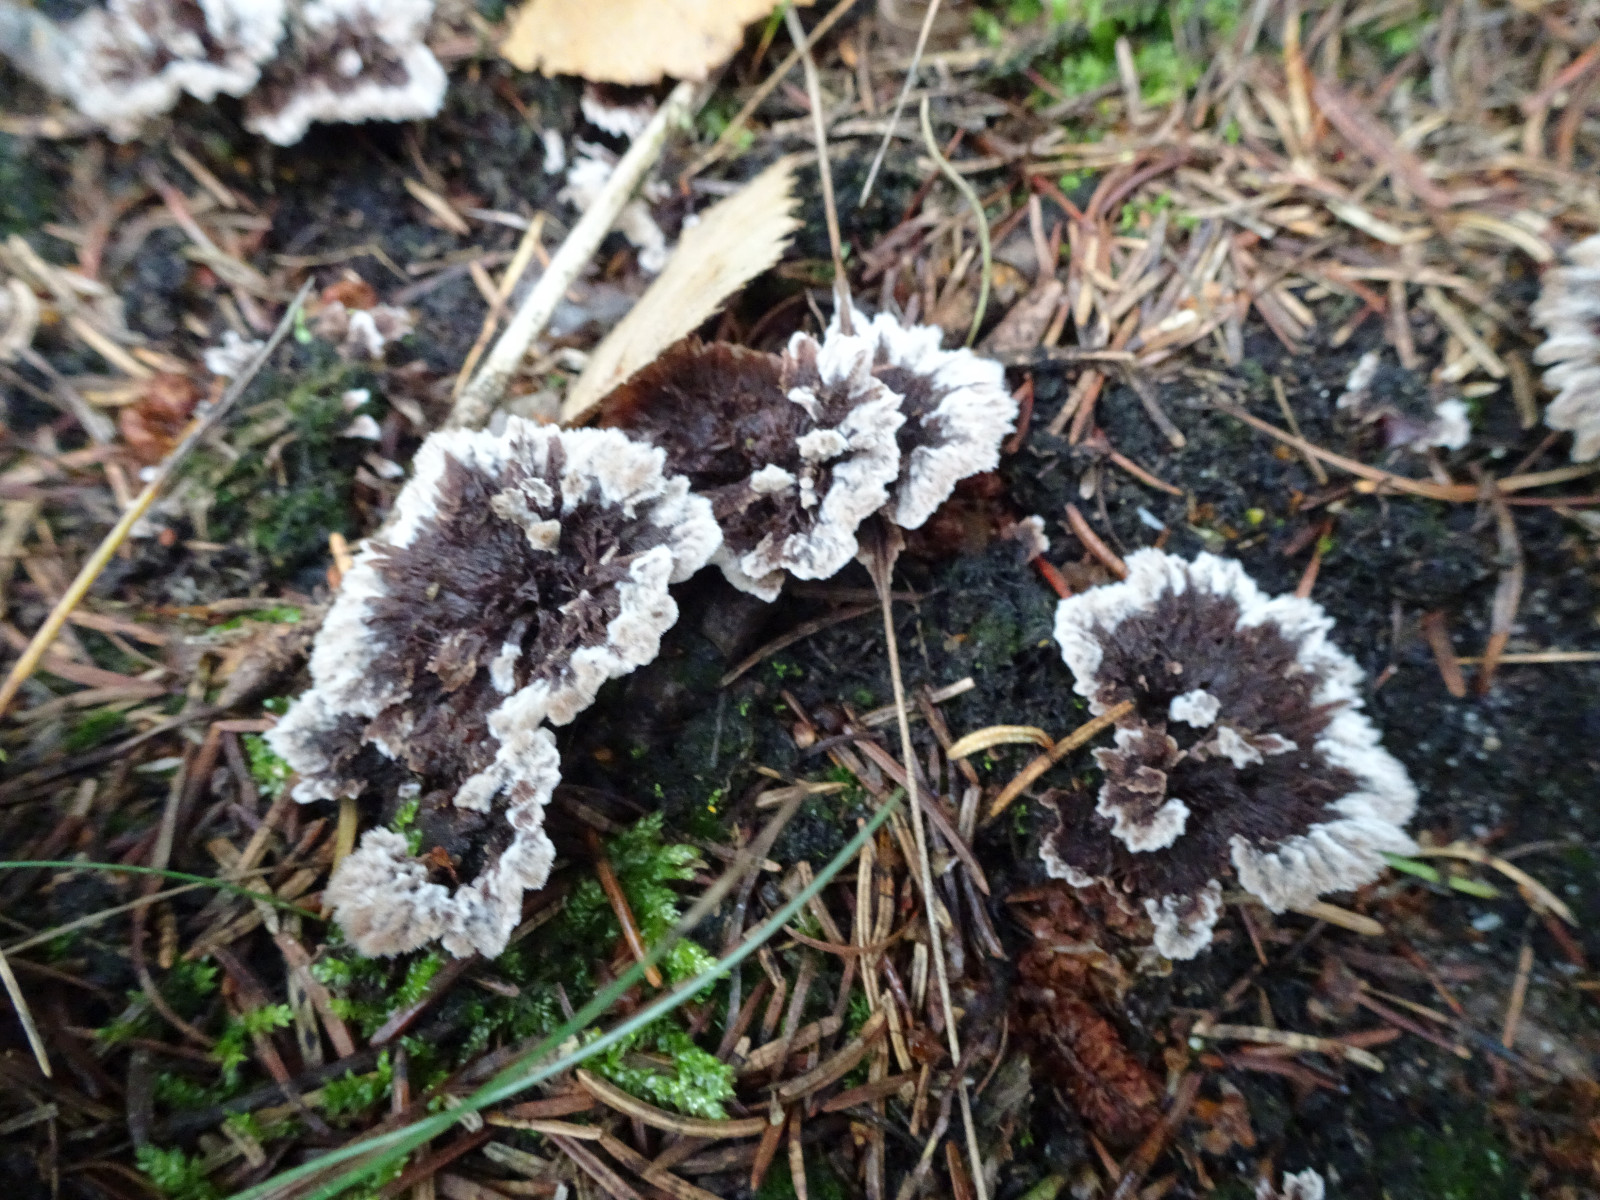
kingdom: Fungi
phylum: Basidiomycota
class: Agaricomycetes
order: Thelephorales
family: Thelephoraceae
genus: Thelephora
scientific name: Thelephora terrestris
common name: fliget frynsesvamp
